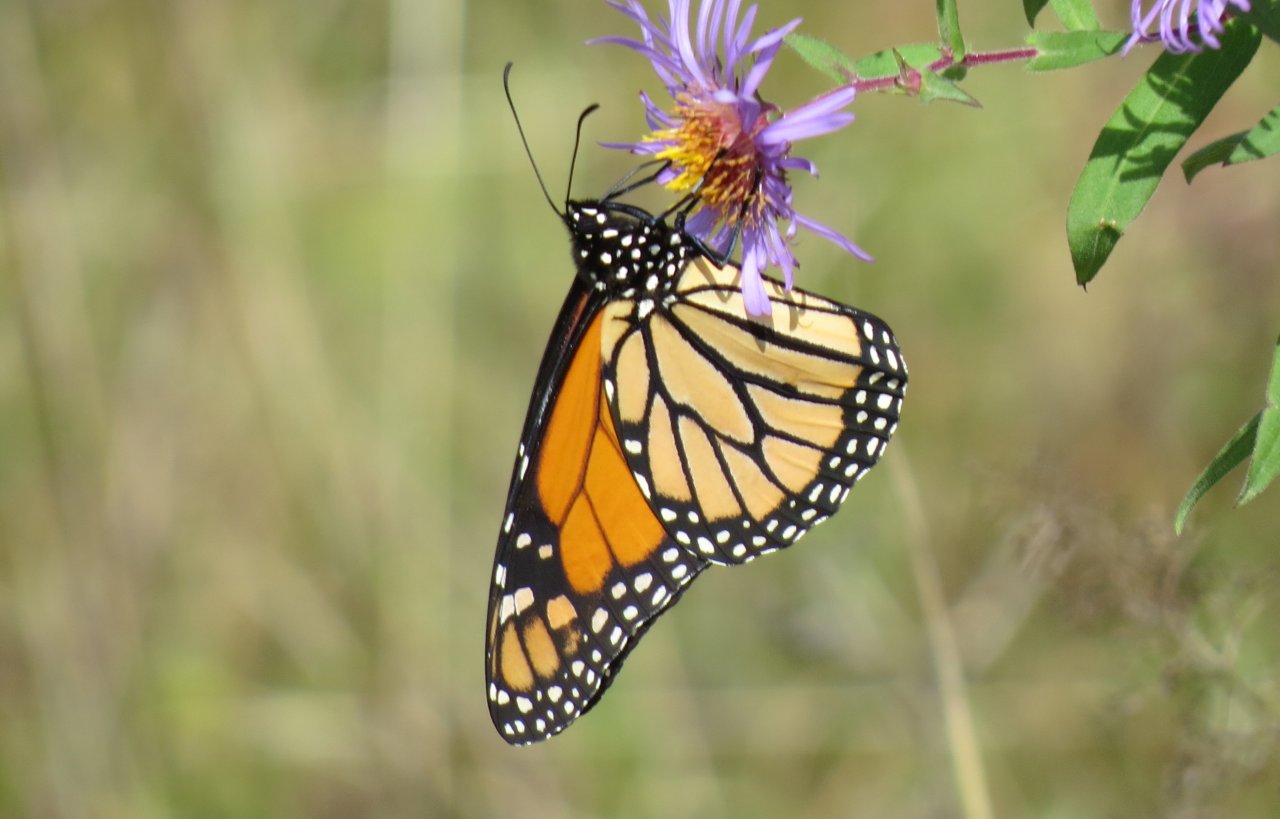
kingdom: Animalia
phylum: Arthropoda
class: Insecta
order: Lepidoptera
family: Nymphalidae
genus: Danaus
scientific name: Danaus plexippus
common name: Monarch
